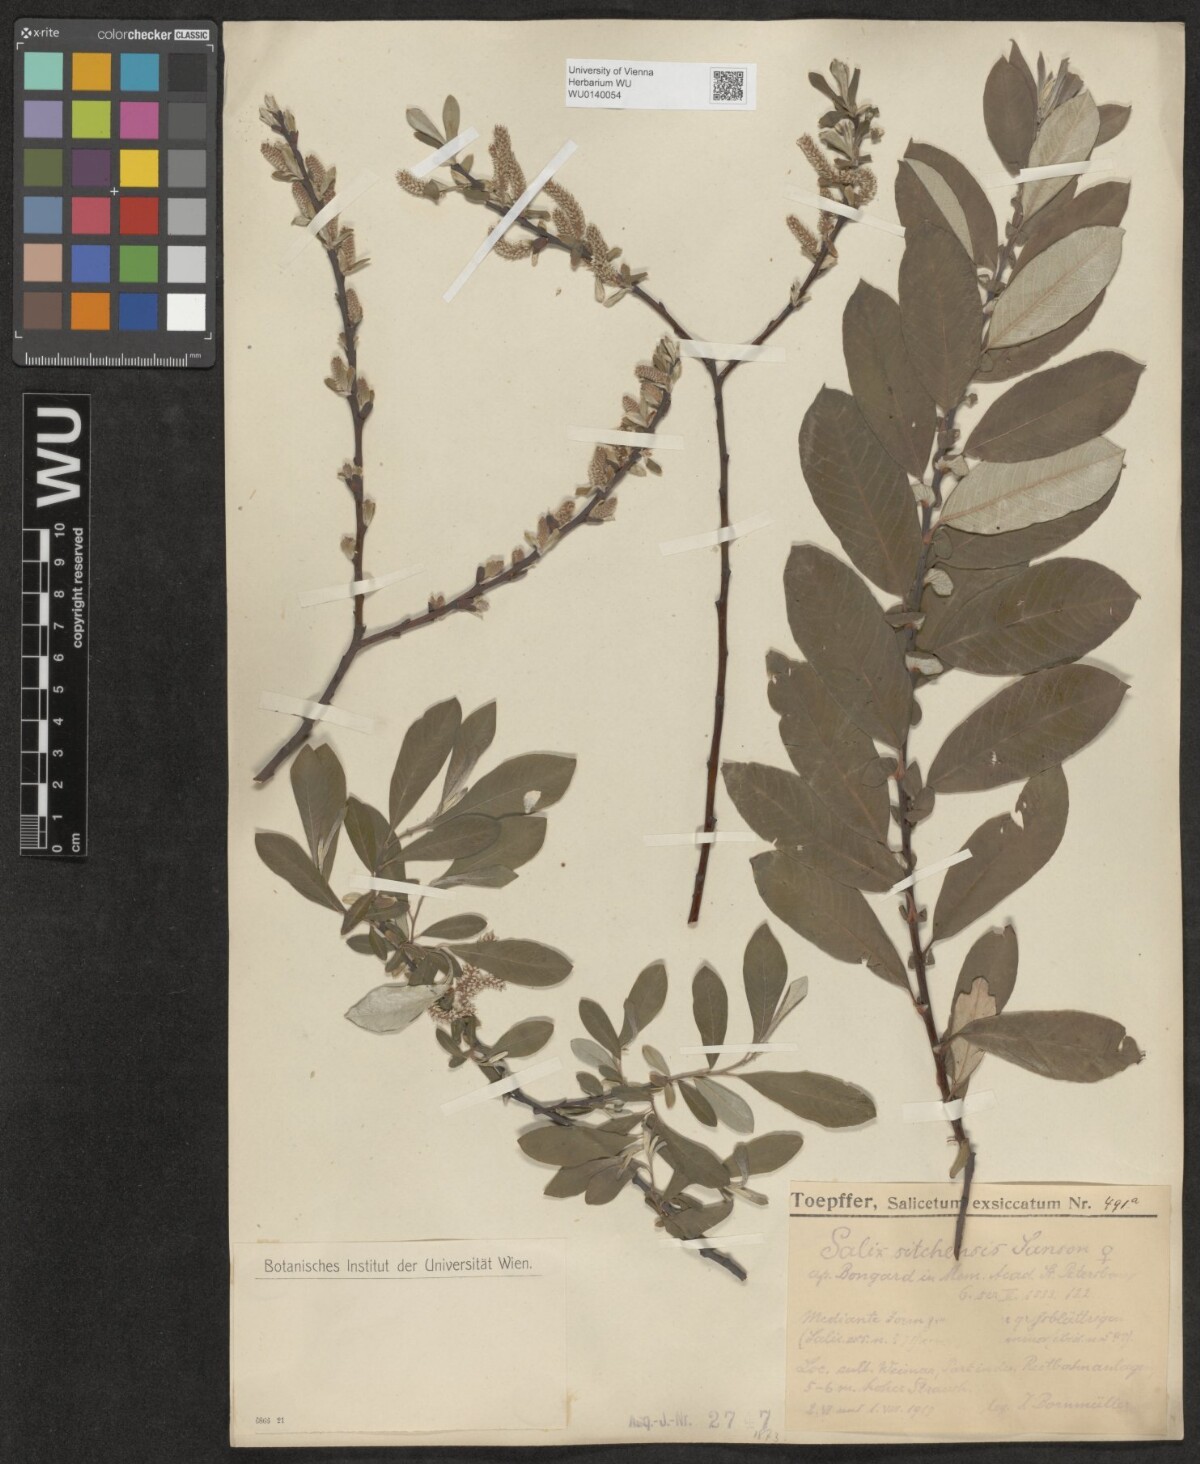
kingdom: Plantae
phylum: Tracheophyta
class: Magnoliopsida
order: Malpighiales
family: Salicaceae
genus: Salix
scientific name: Salix sitchensis
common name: Sitka willow
